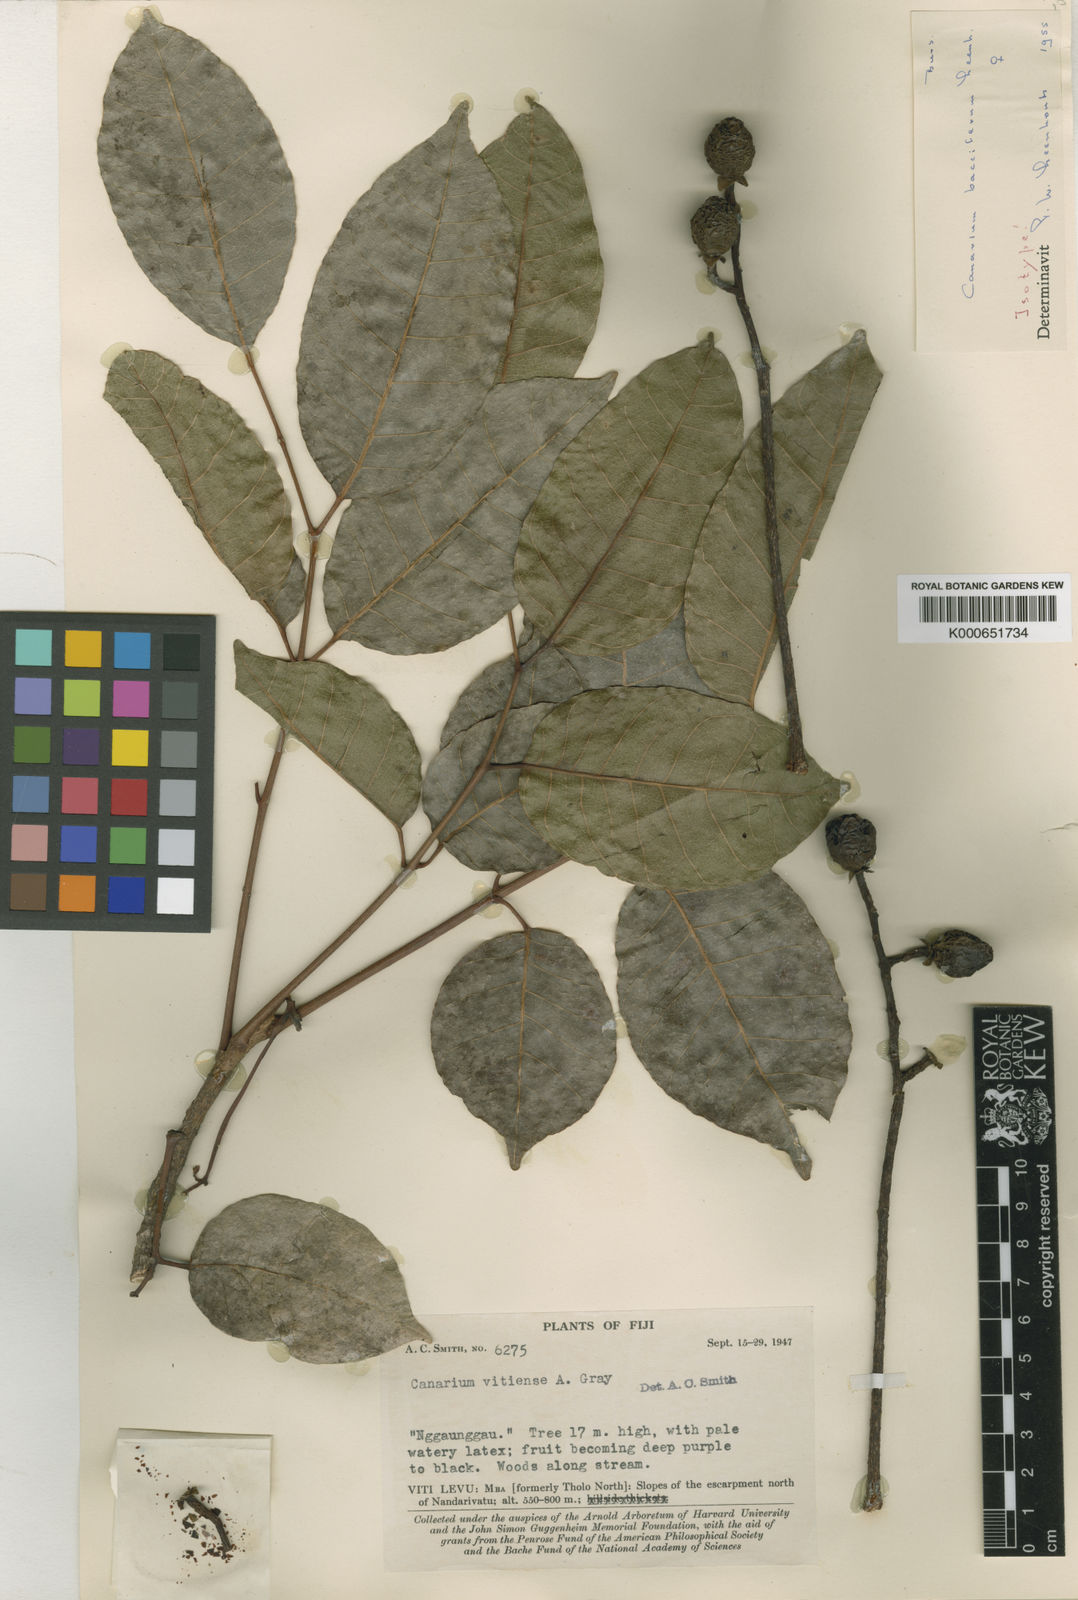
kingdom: Plantae
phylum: Tracheophyta
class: Magnoliopsida
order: Sapindales
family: Burseraceae
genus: Canarium
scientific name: Canarium vitiense
